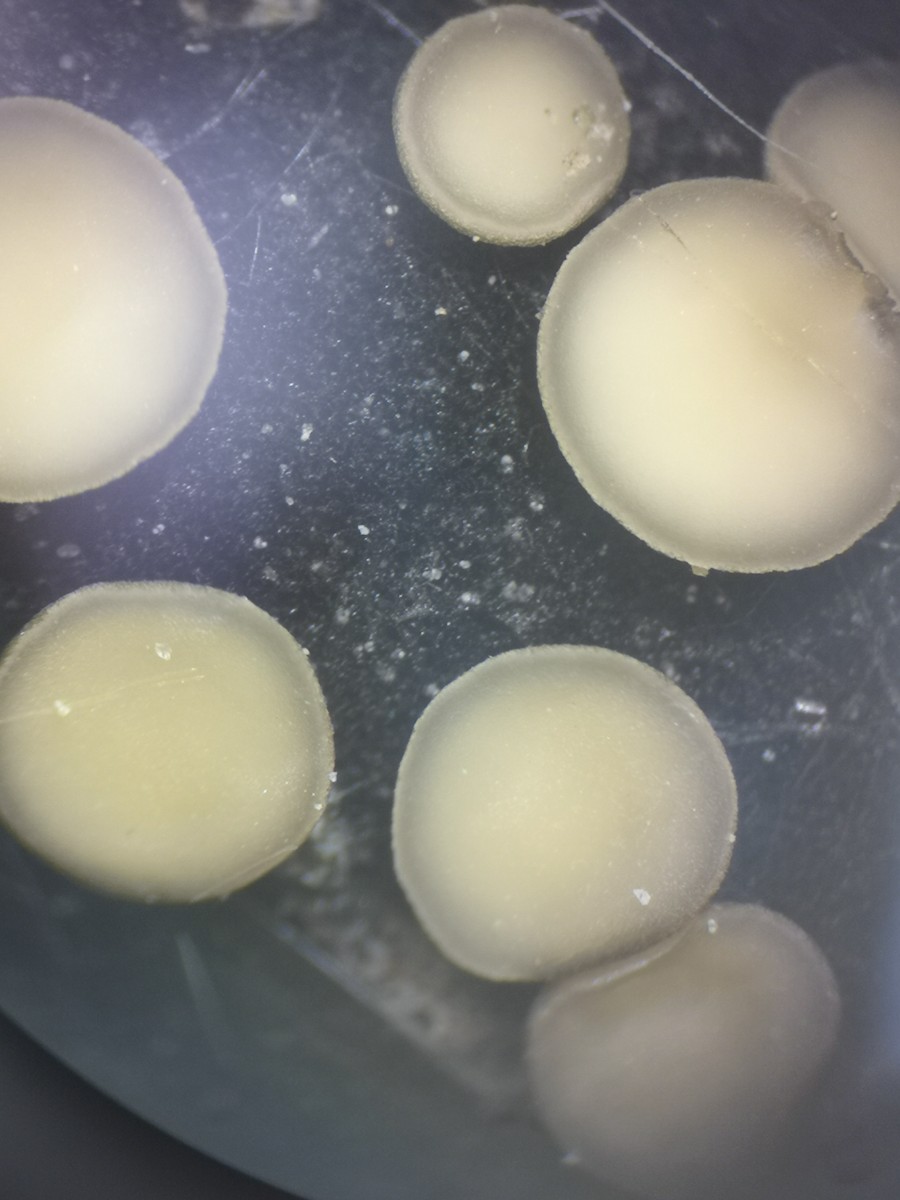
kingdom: Fungi
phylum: Ascomycota
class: Leotiomycetes
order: Helotiales
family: Mollisiaceae
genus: Trichobelonium
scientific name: Trichobelonium kneiffii
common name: tagrør-gråskive
